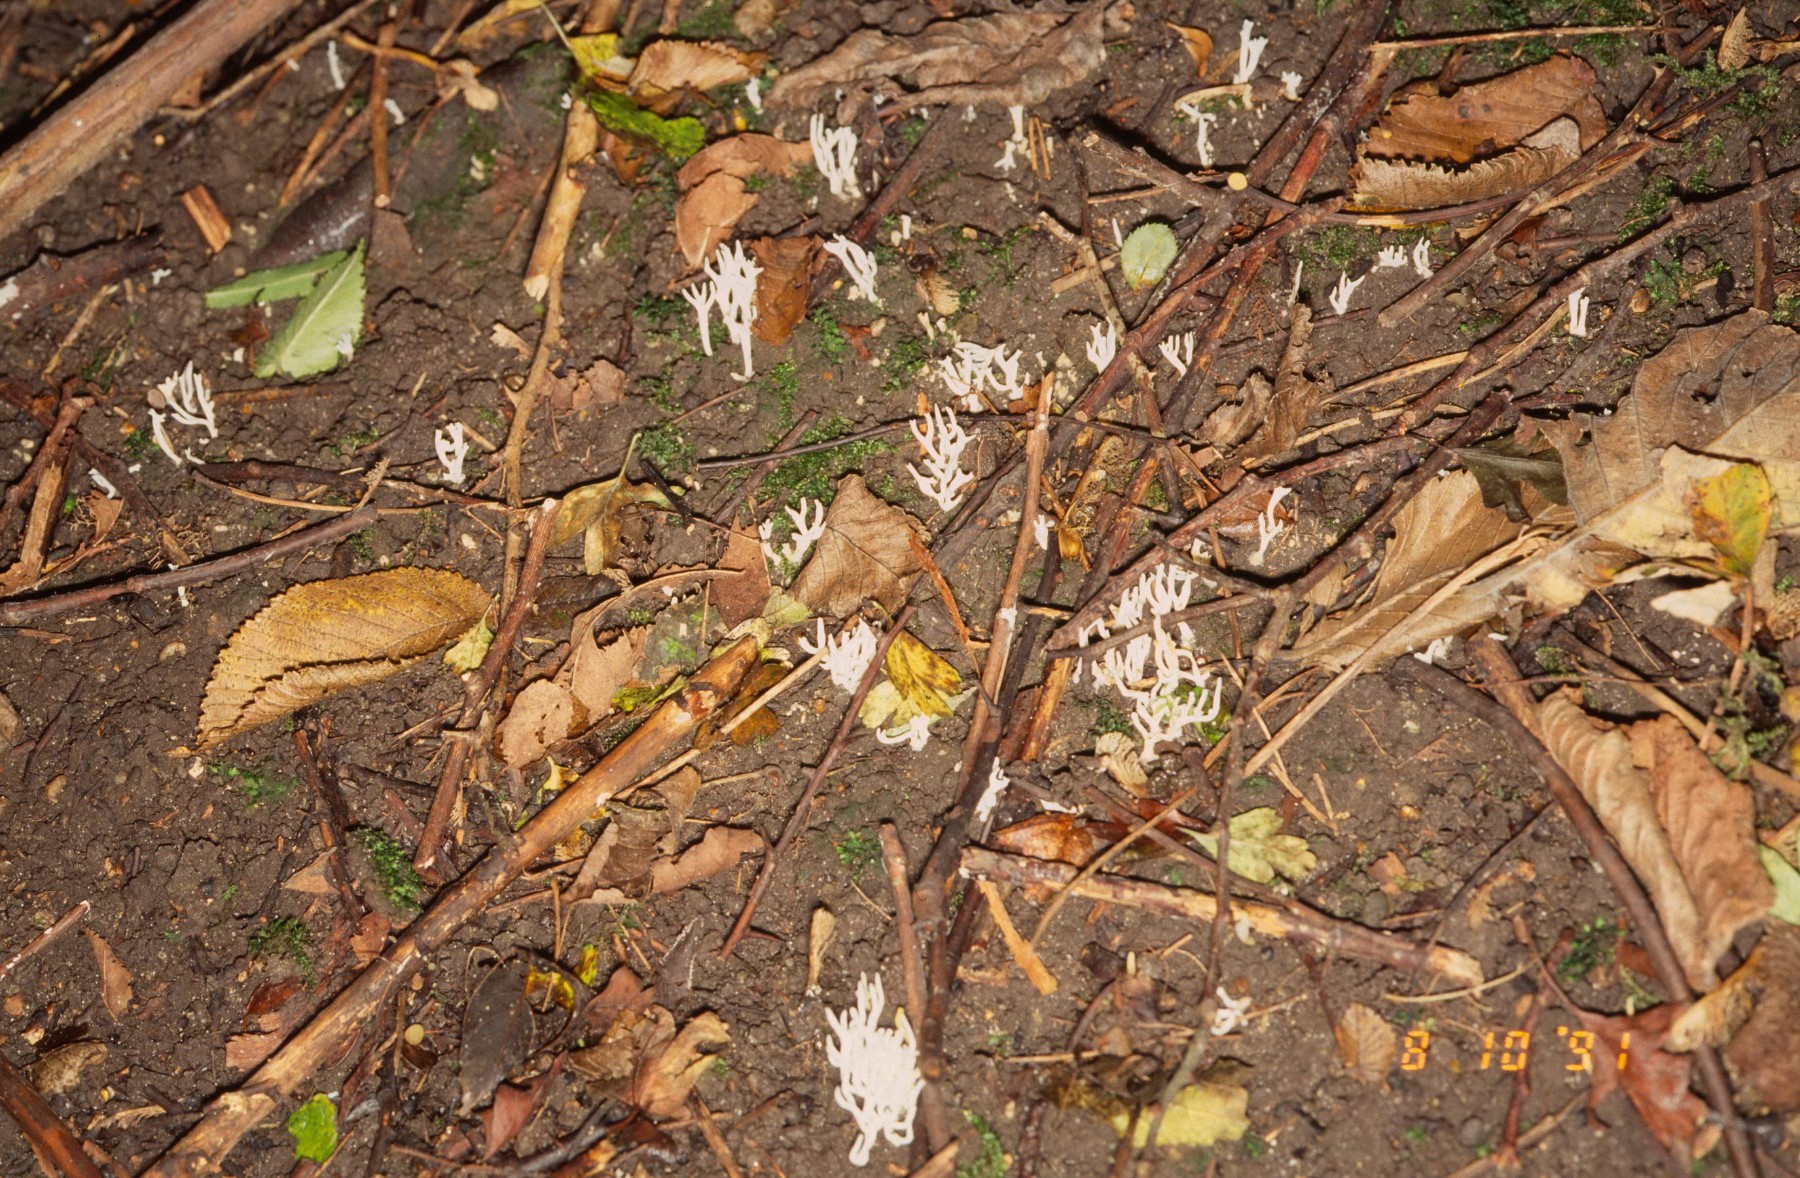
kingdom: Fungi
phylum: Basidiomycota
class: Agaricomycetes
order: Agaricales
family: Clavariaceae
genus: Ramariopsis
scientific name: Ramariopsis
